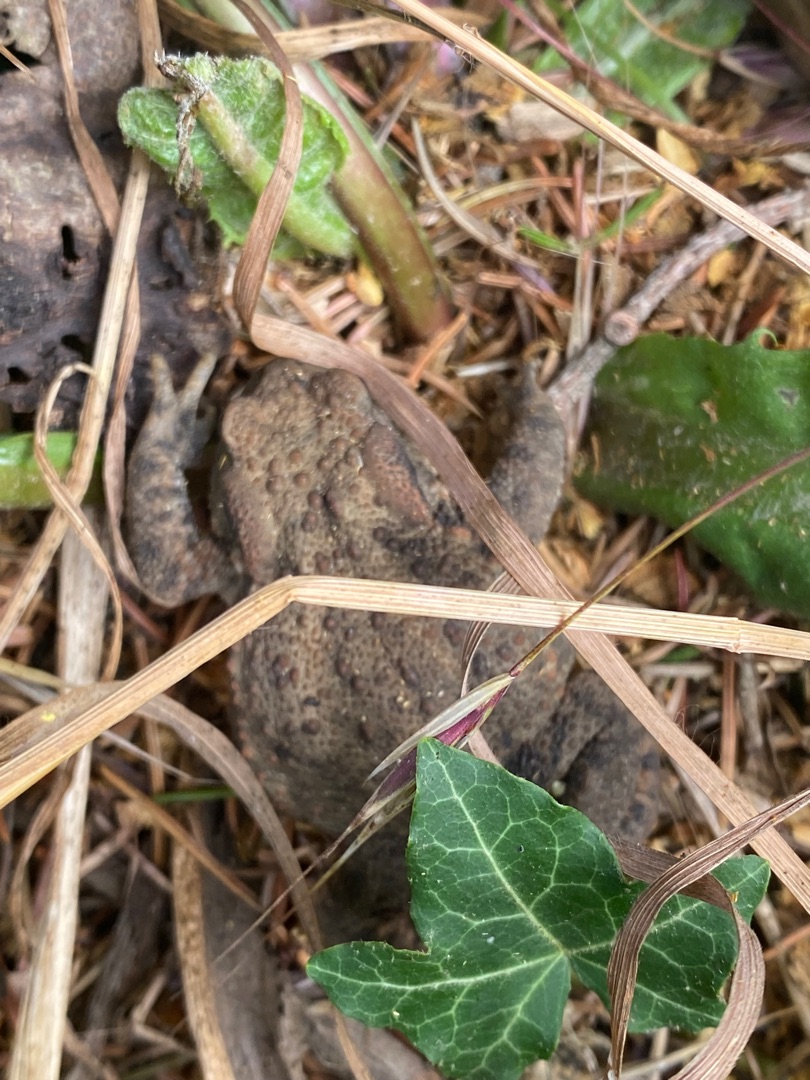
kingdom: Animalia
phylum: Chordata
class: Amphibia
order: Anura
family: Bufonidae
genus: Bufo
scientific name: Bufo bufo
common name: Skrubtudse
